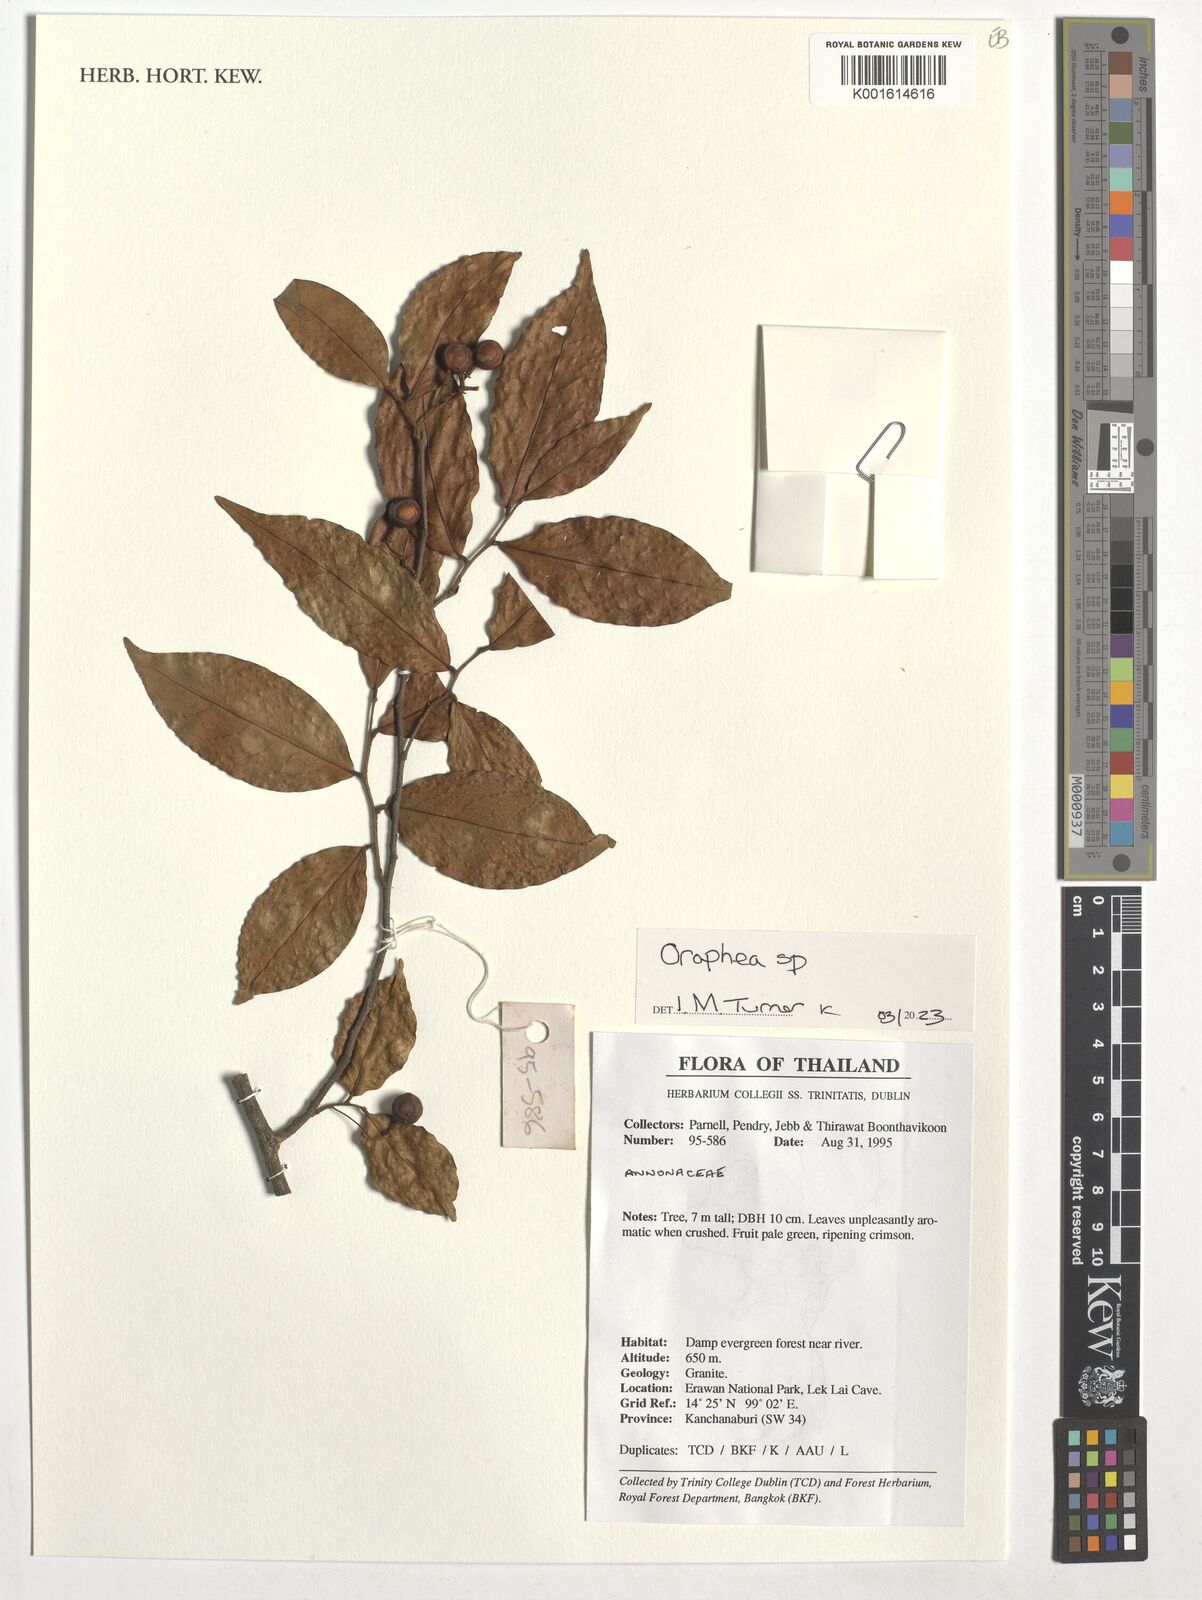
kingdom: Plantae
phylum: Tracheophyta
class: Magnoliopsida
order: Magnoliales
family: Annonaceae
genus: Orophea
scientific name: Orophea
